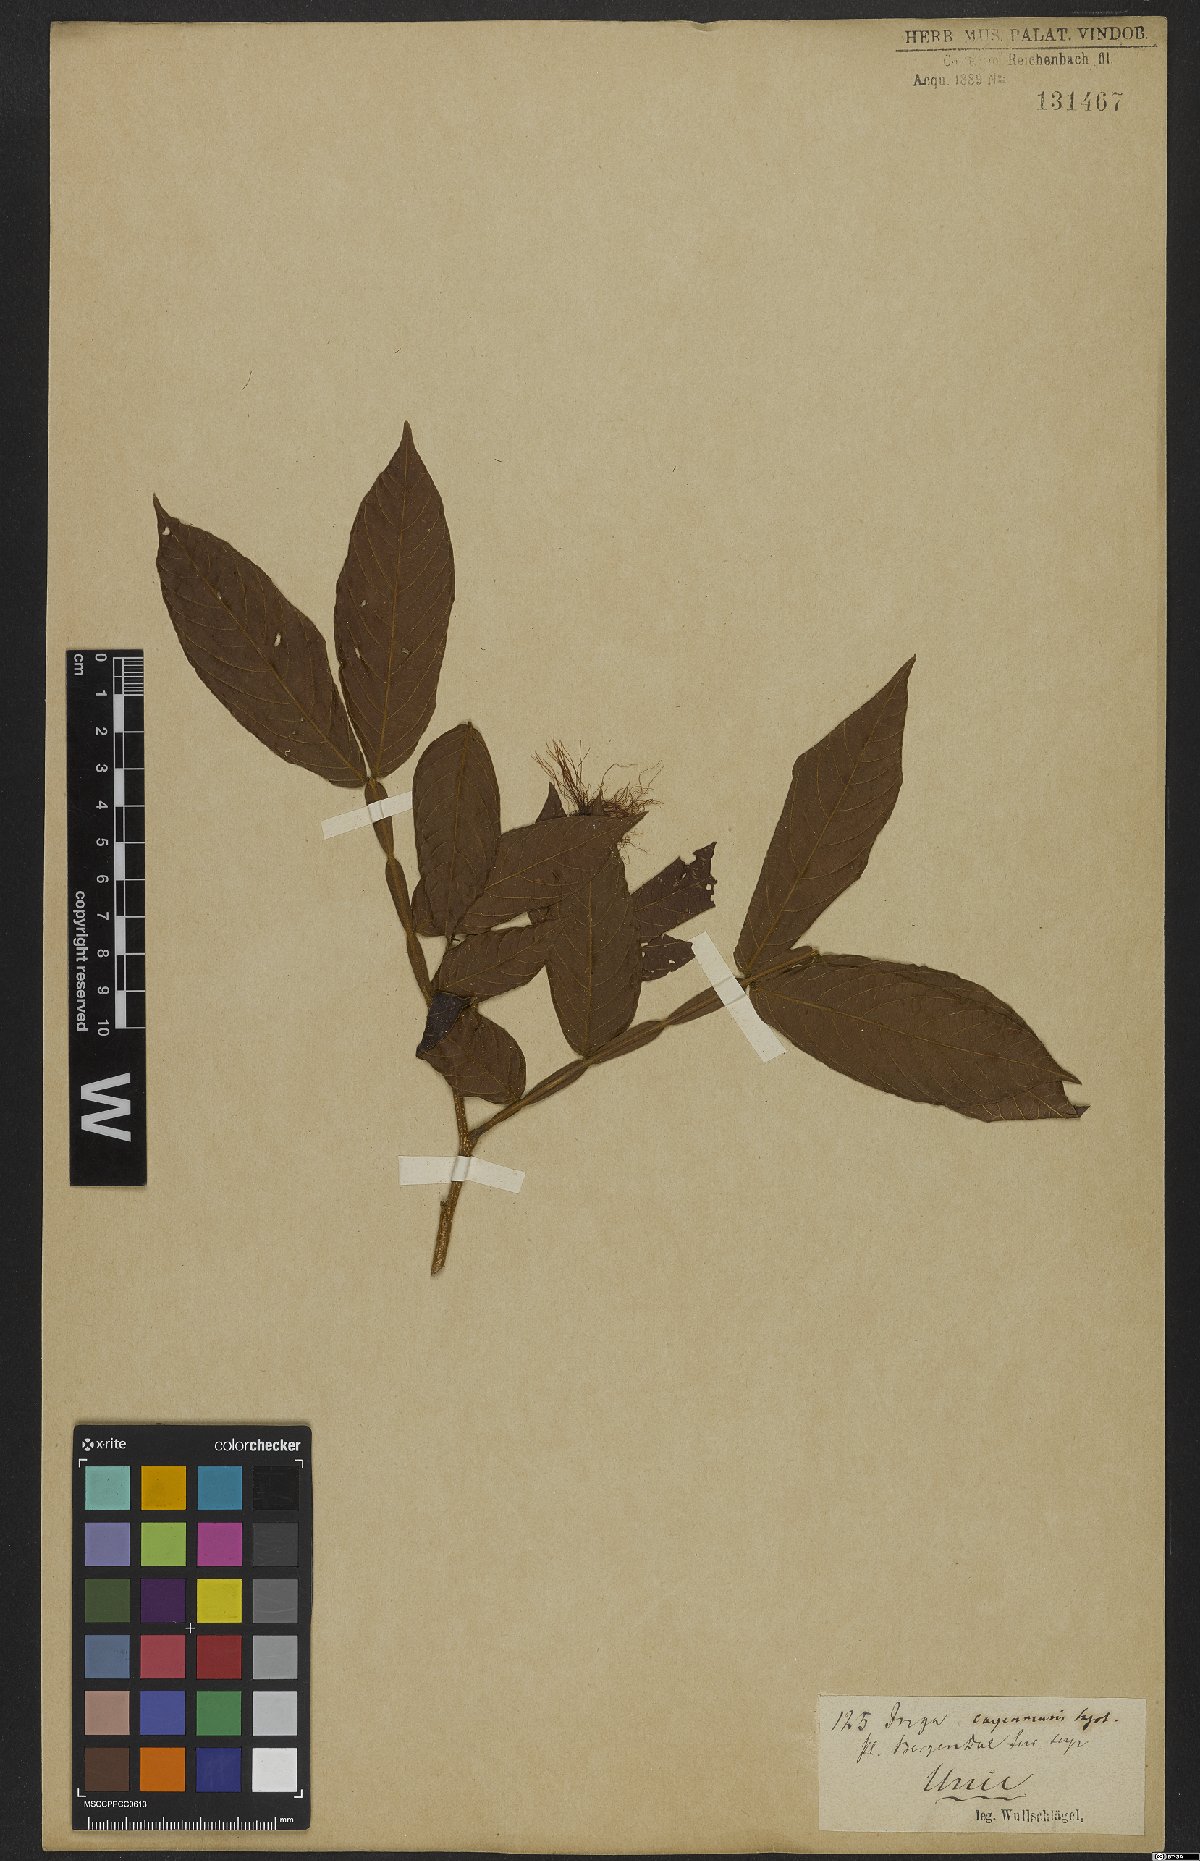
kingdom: Plantae
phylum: Tracheophyta
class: Magnoliopsida
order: Fabales
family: Fabaceae
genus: Inga
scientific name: Inga cayennensis
